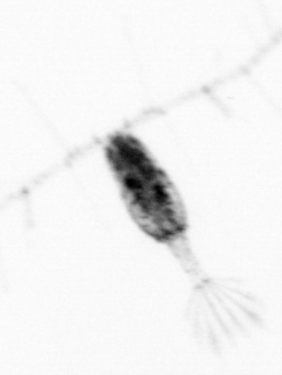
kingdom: Animalia
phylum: Arthropoda
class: Copepoda
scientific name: Copepoda
